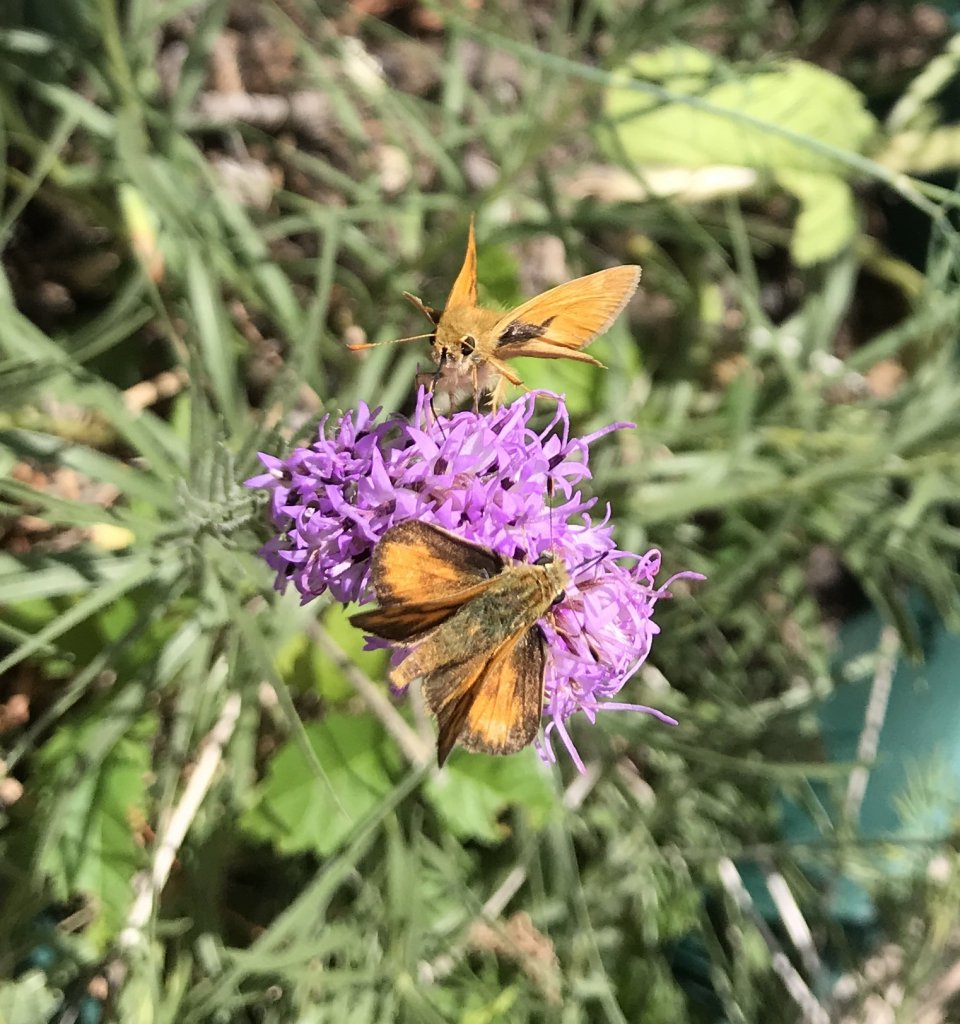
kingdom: Animalia
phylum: Arthropoda
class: Insecta
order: Lepidoptera
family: Hesperiidae
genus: Ochlodes
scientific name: Ochlodes sylvanoides
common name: Woodland Skipper
